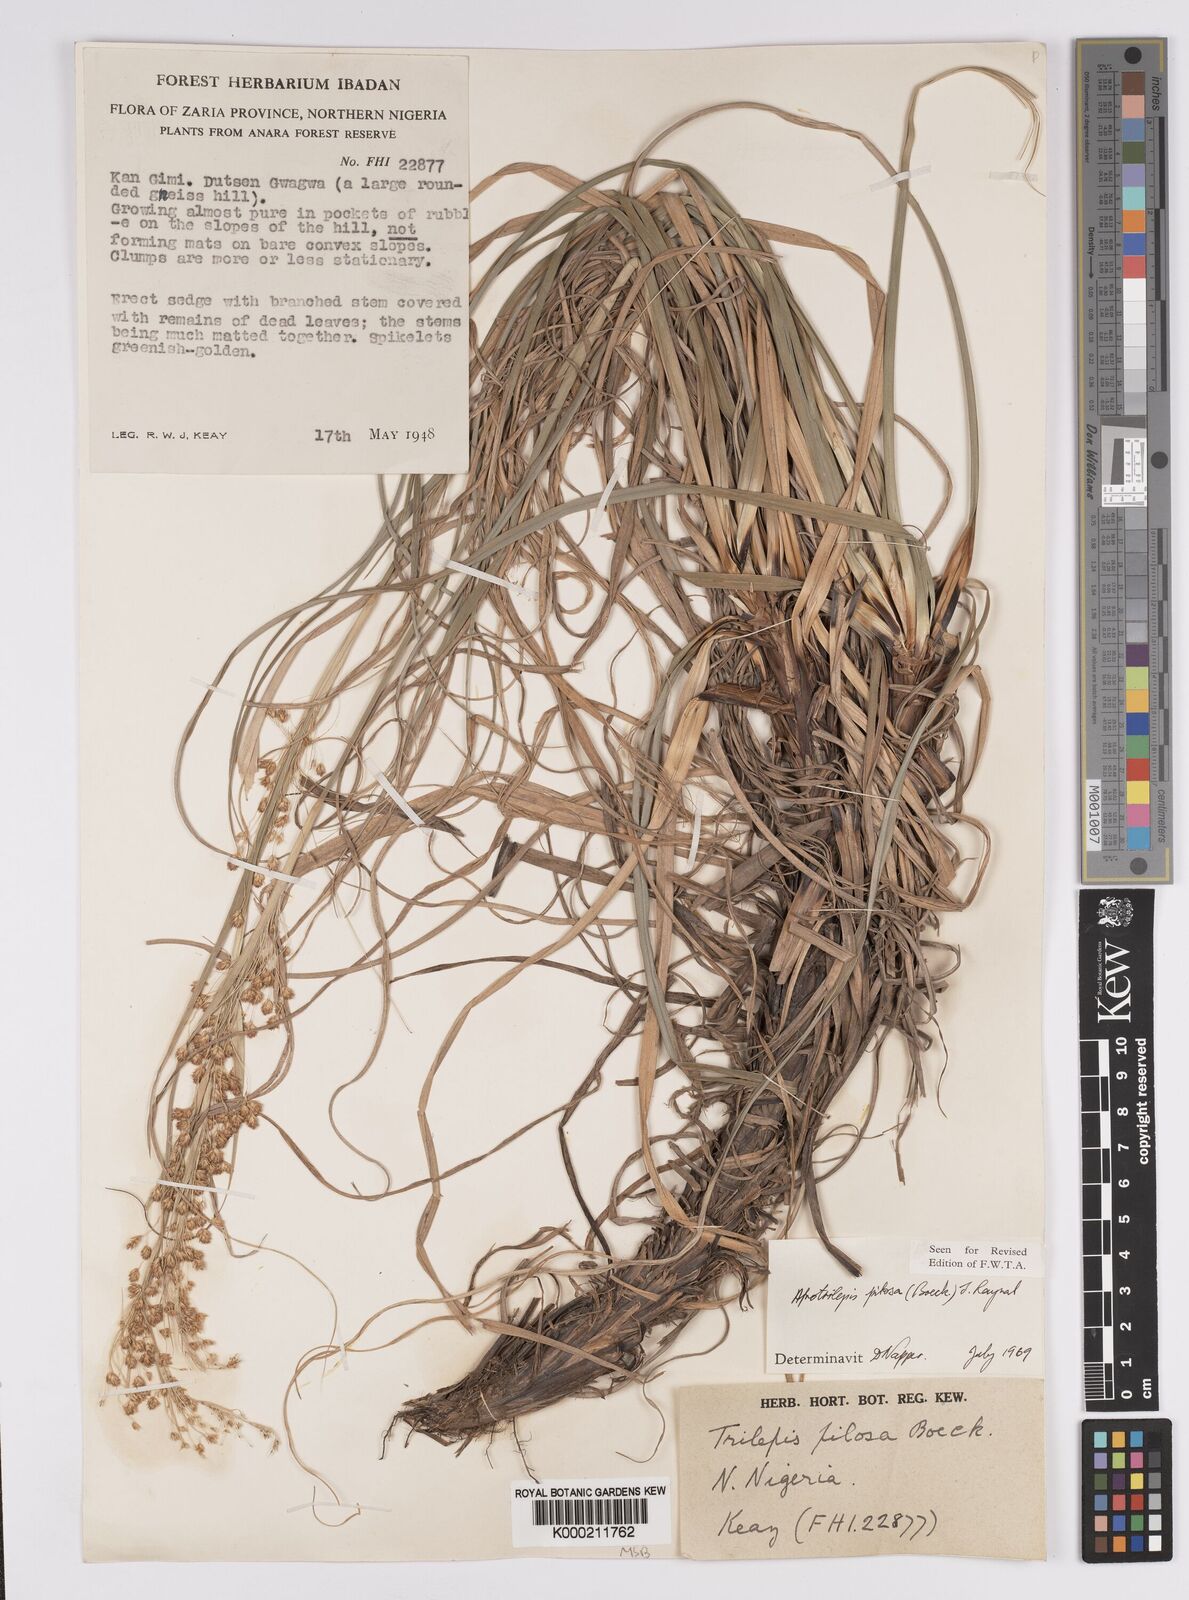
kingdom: Plantae
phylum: Tracheophyta
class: Liliopsida
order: Poales
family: Cyperaceae
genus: Afrotrilepis
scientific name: Afrotrilepis pilosa
